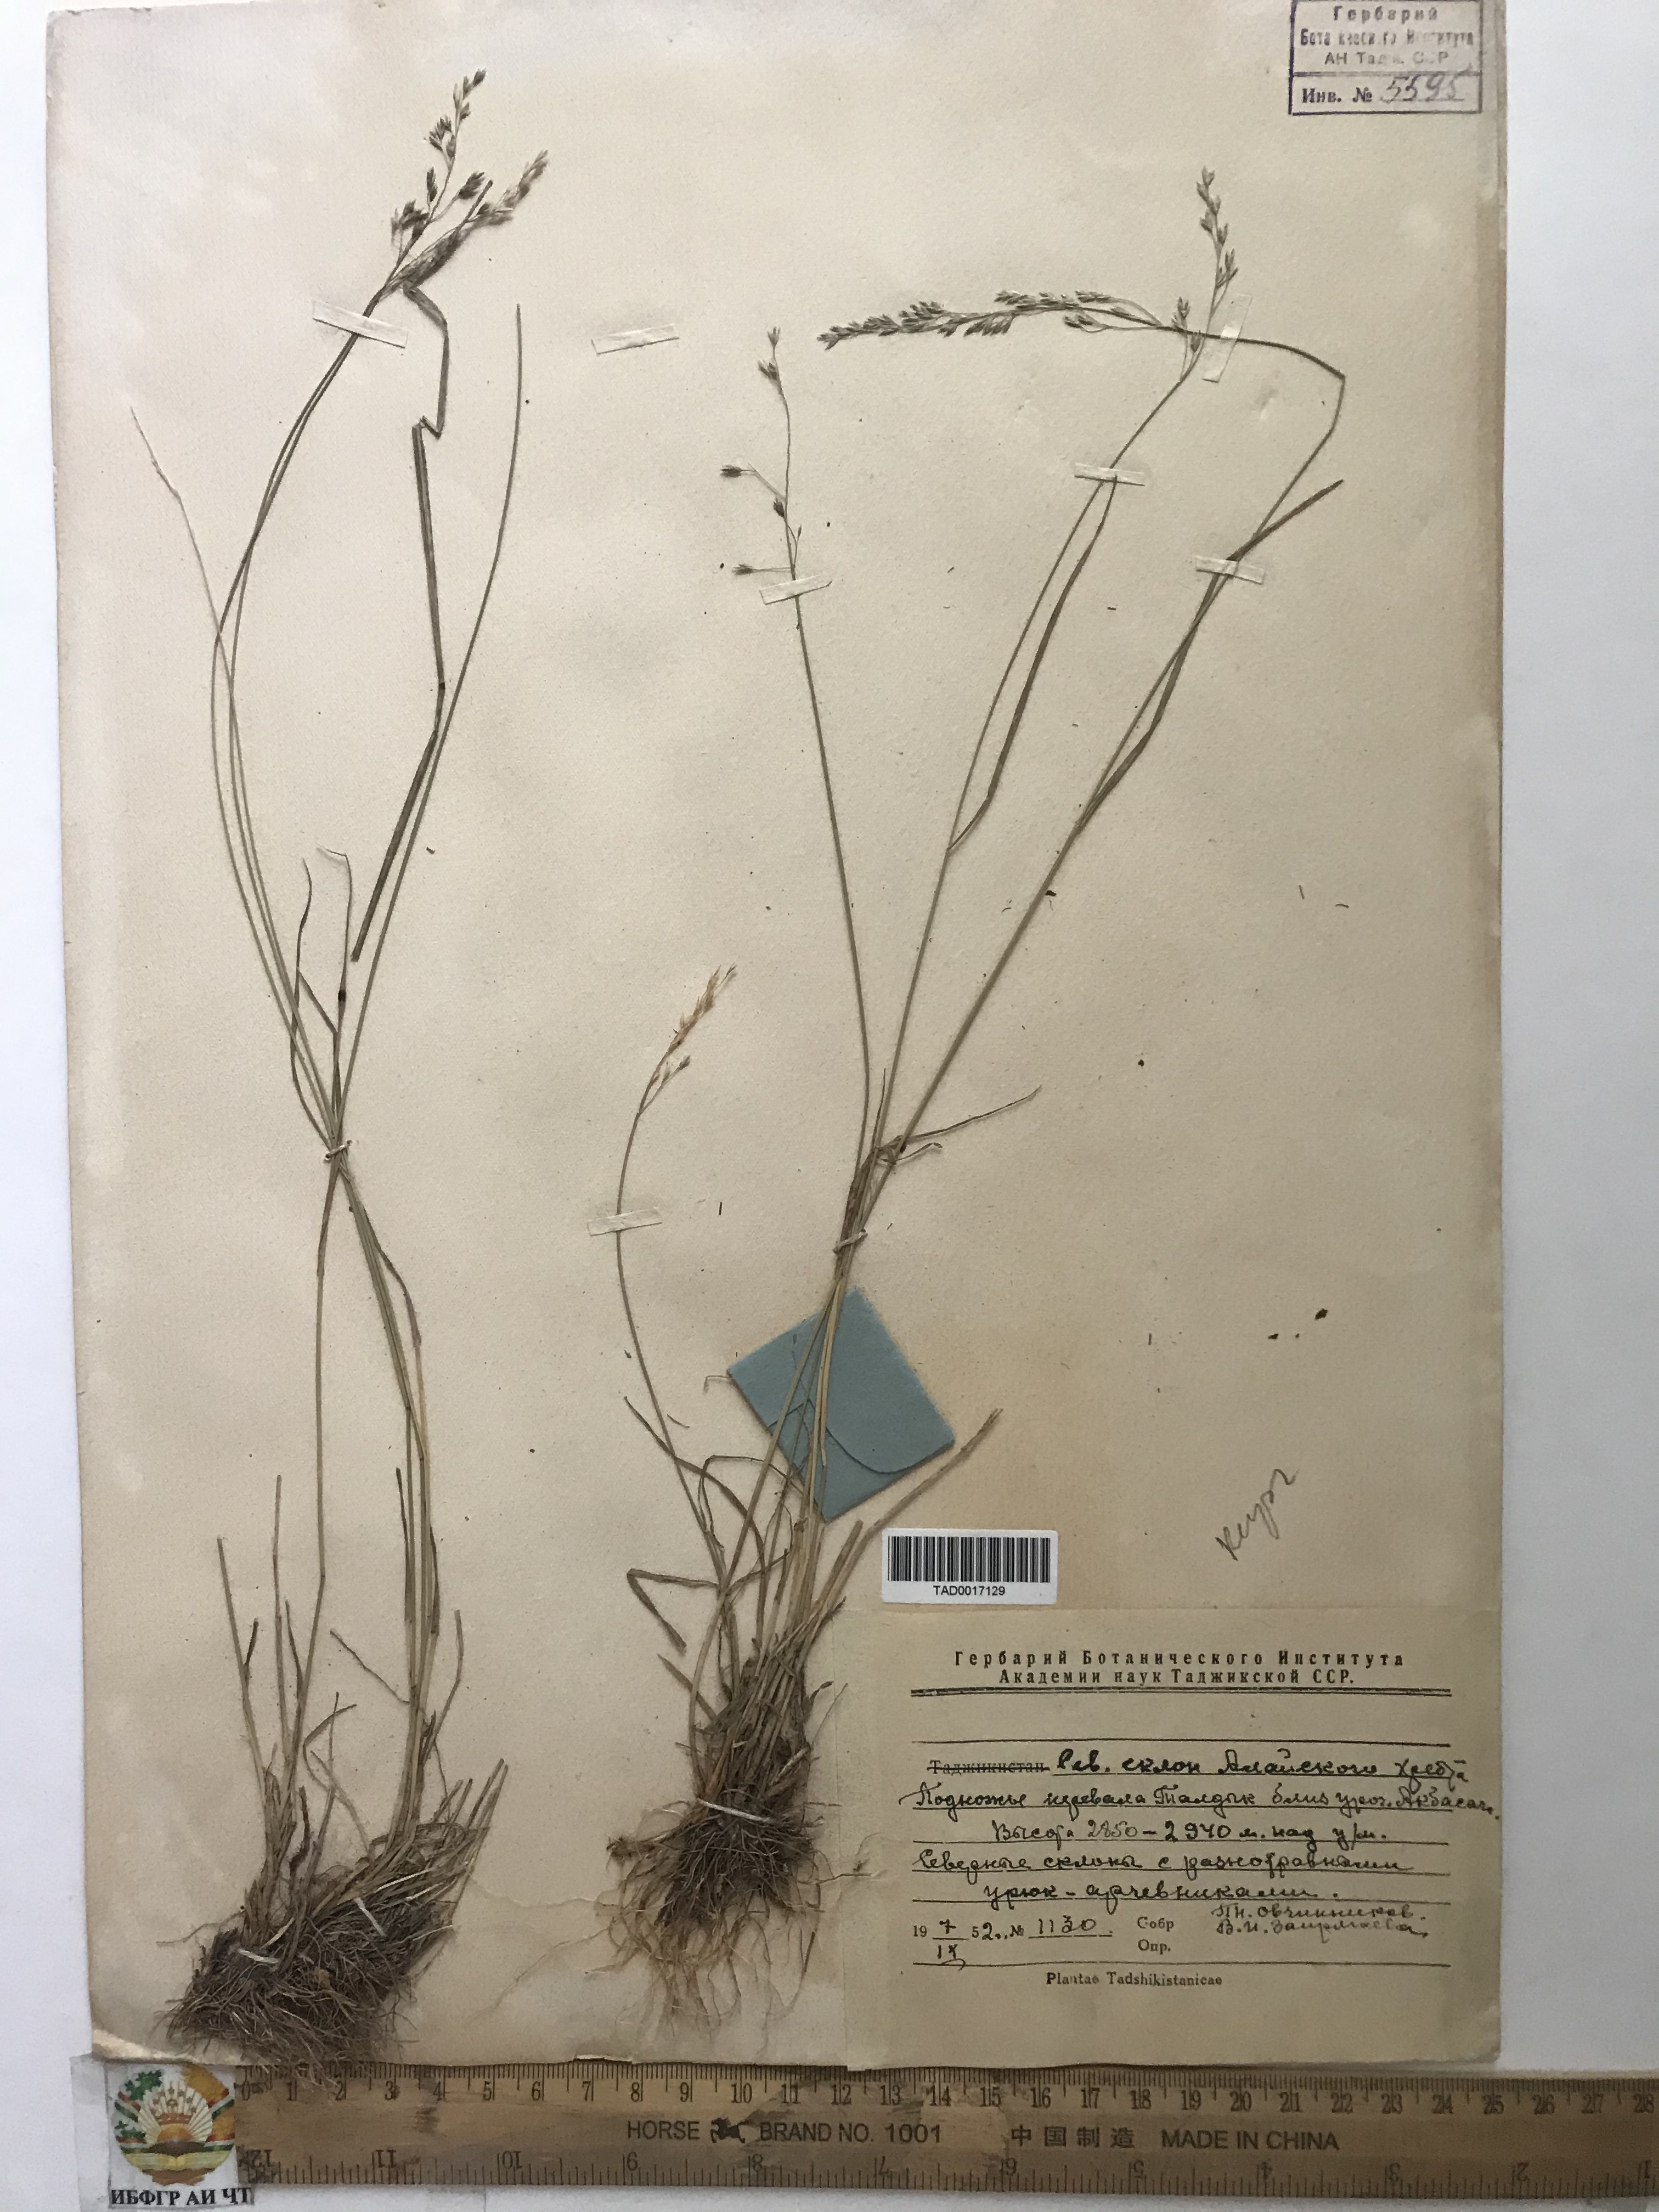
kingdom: Plantae
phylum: Tracheophyta
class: Liliopsida
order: Poales
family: Poaceae
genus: Poa
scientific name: Poa urssulensis
